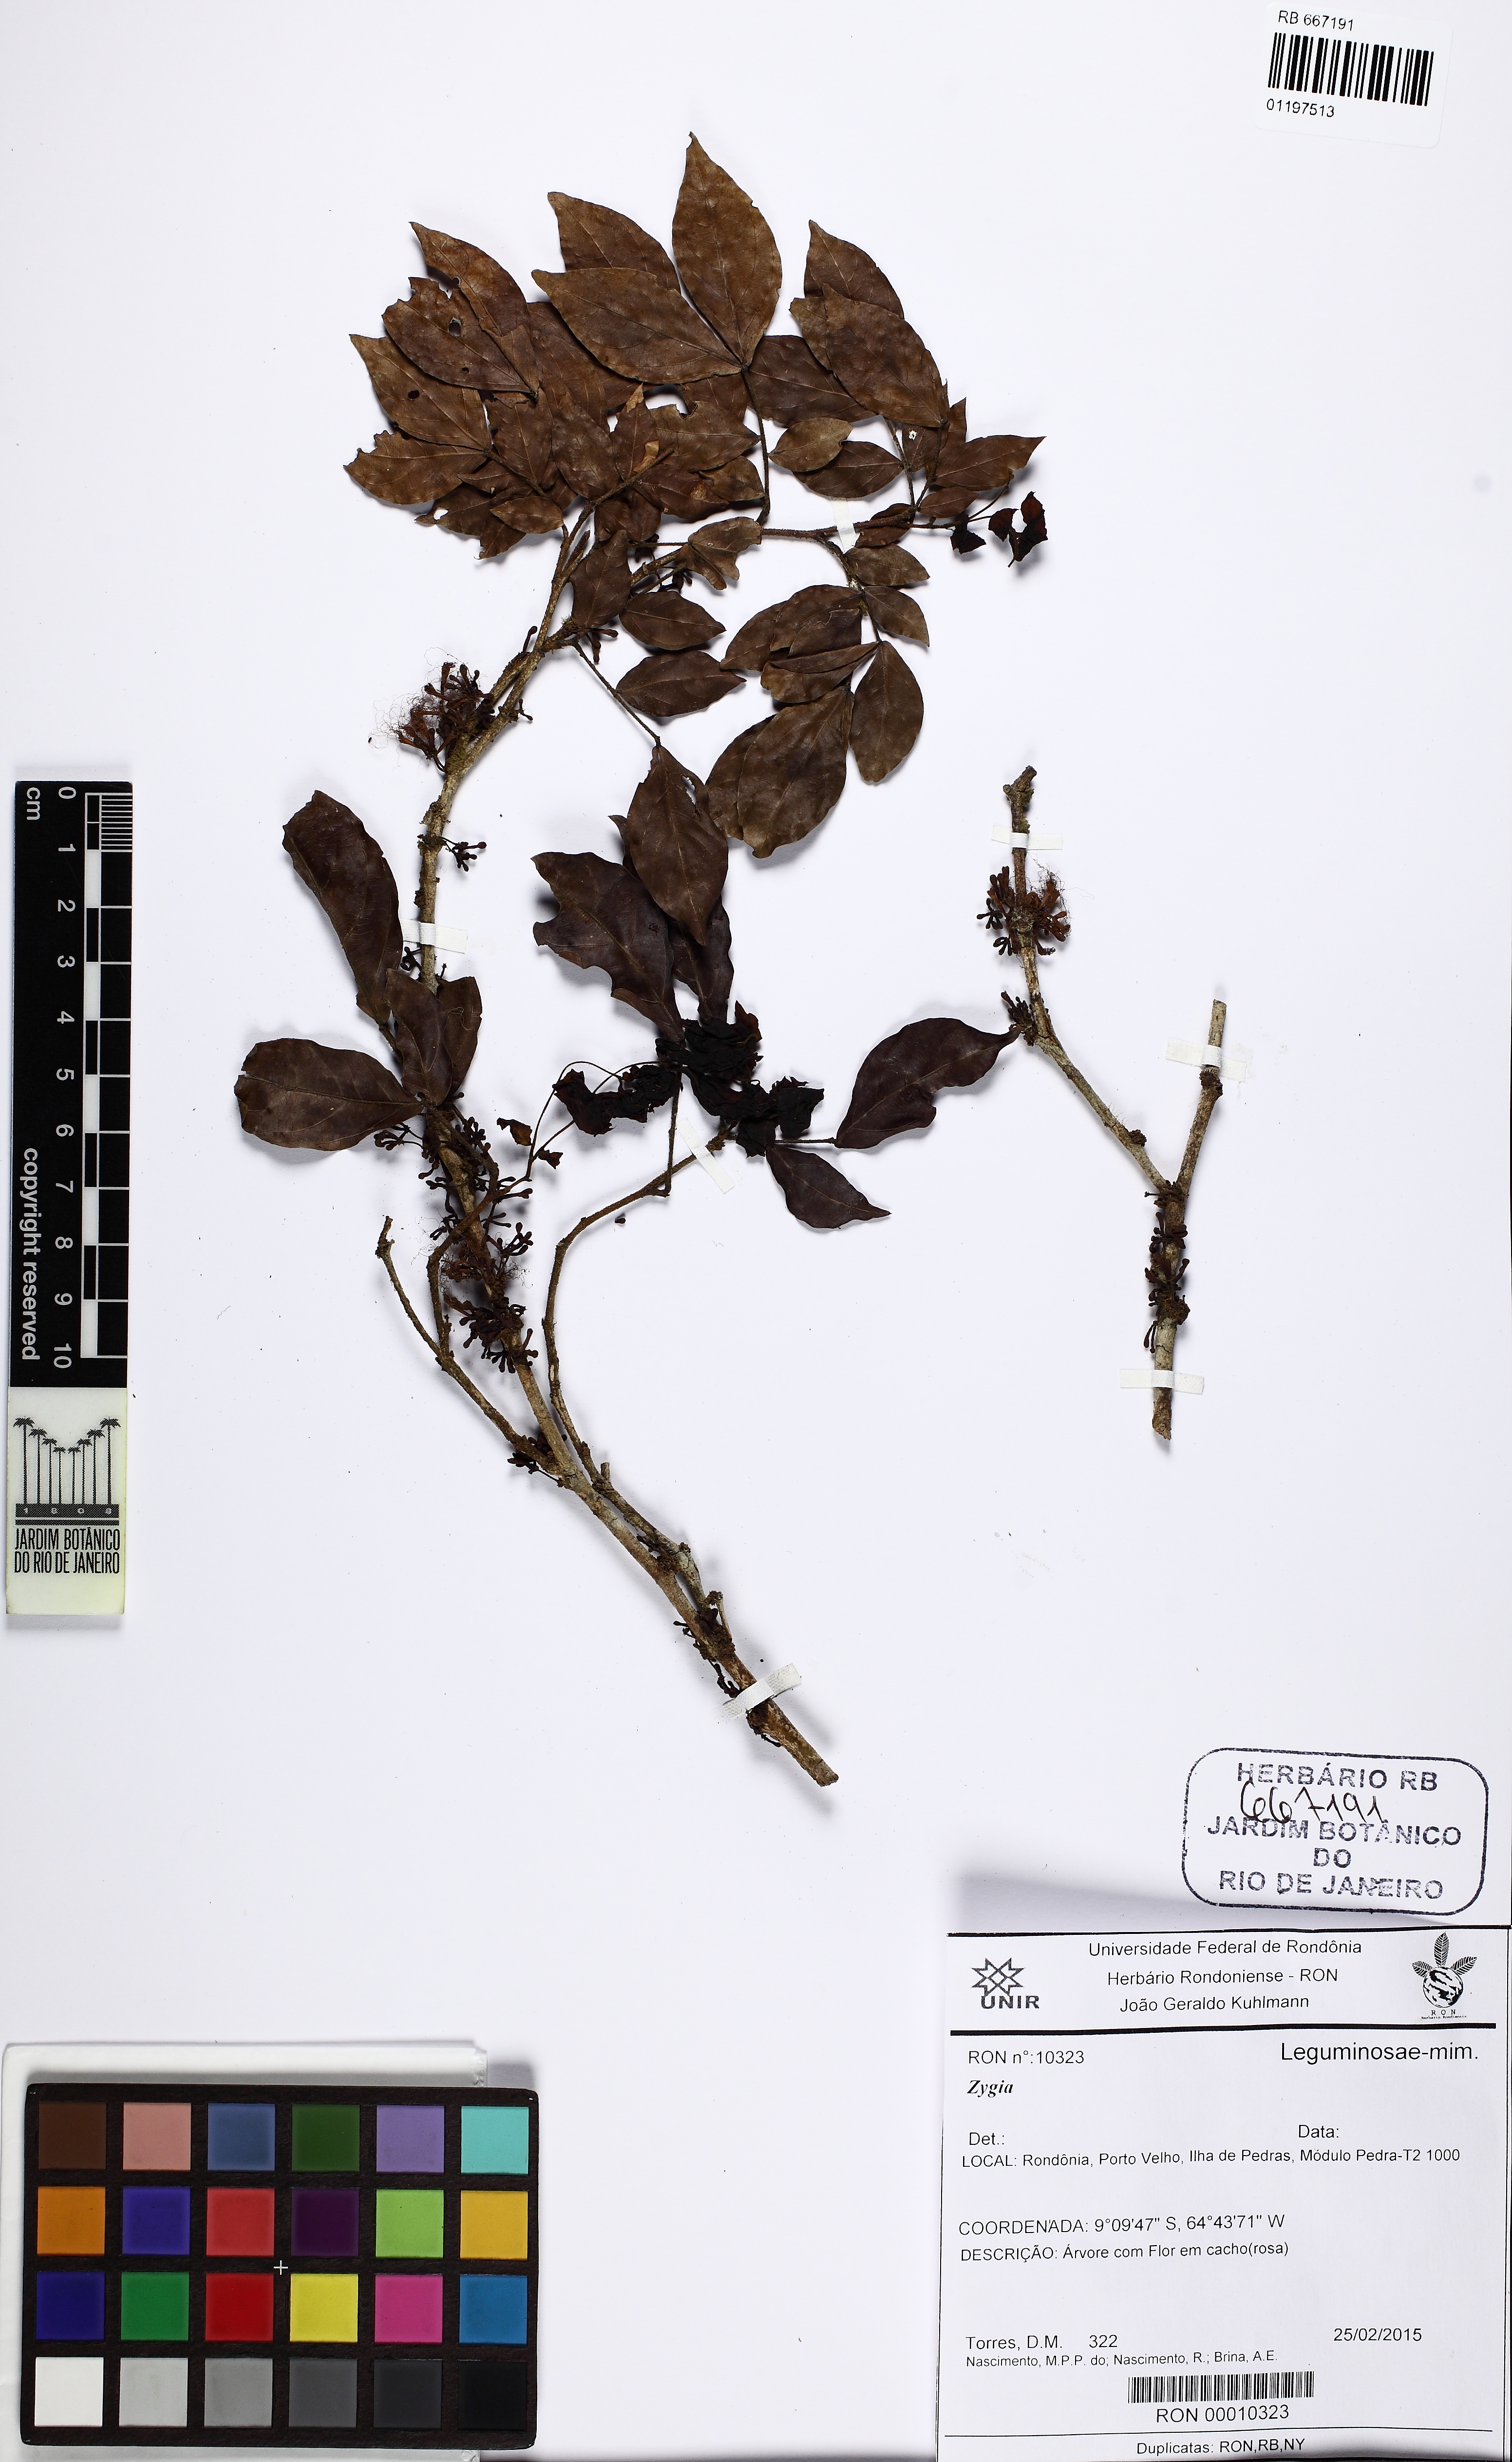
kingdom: Plantae
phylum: Tracheophyta
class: Magnoliopsida
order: Fabales
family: Fabaceae
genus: Zygia
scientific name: Zygia
